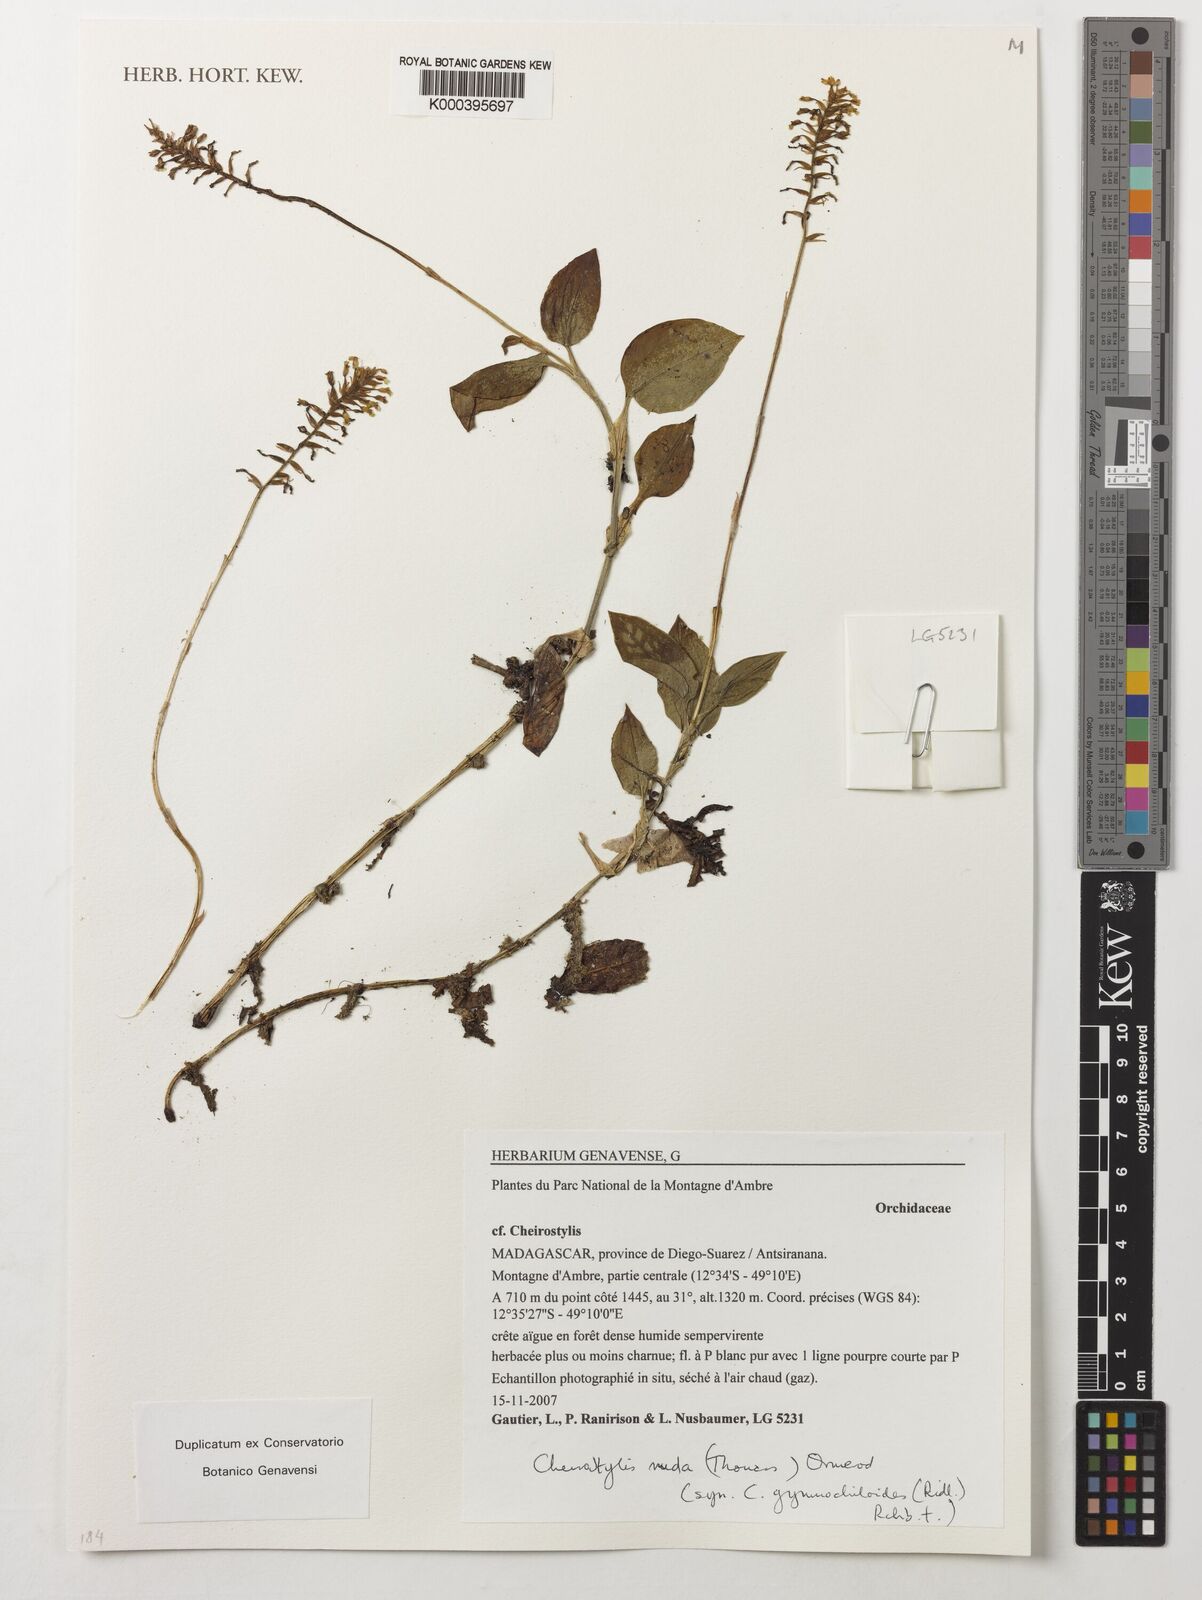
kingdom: Plantae
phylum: Tracheophyta
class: Liliopsida
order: Asparagales
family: Orchidaceae
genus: Cheirostylis
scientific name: Cheirostylis nuda
